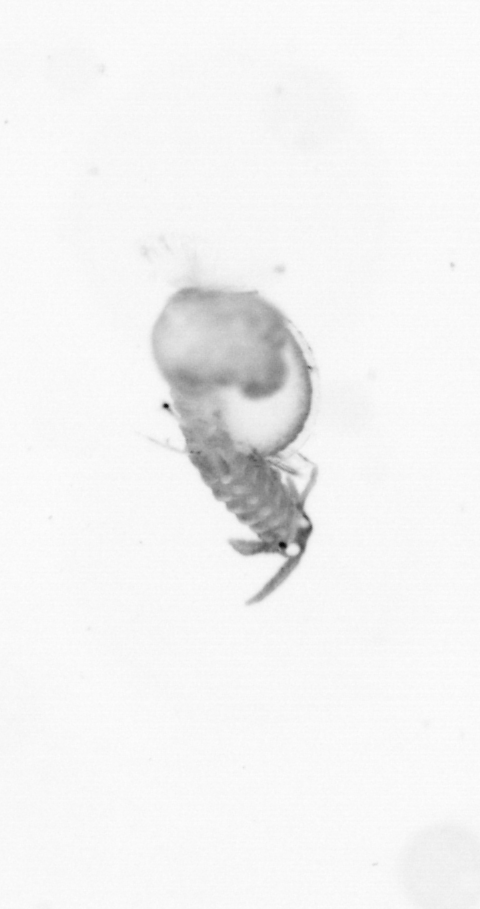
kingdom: Animalia
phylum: Annelida
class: Polychaeta
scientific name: Polychaeta
